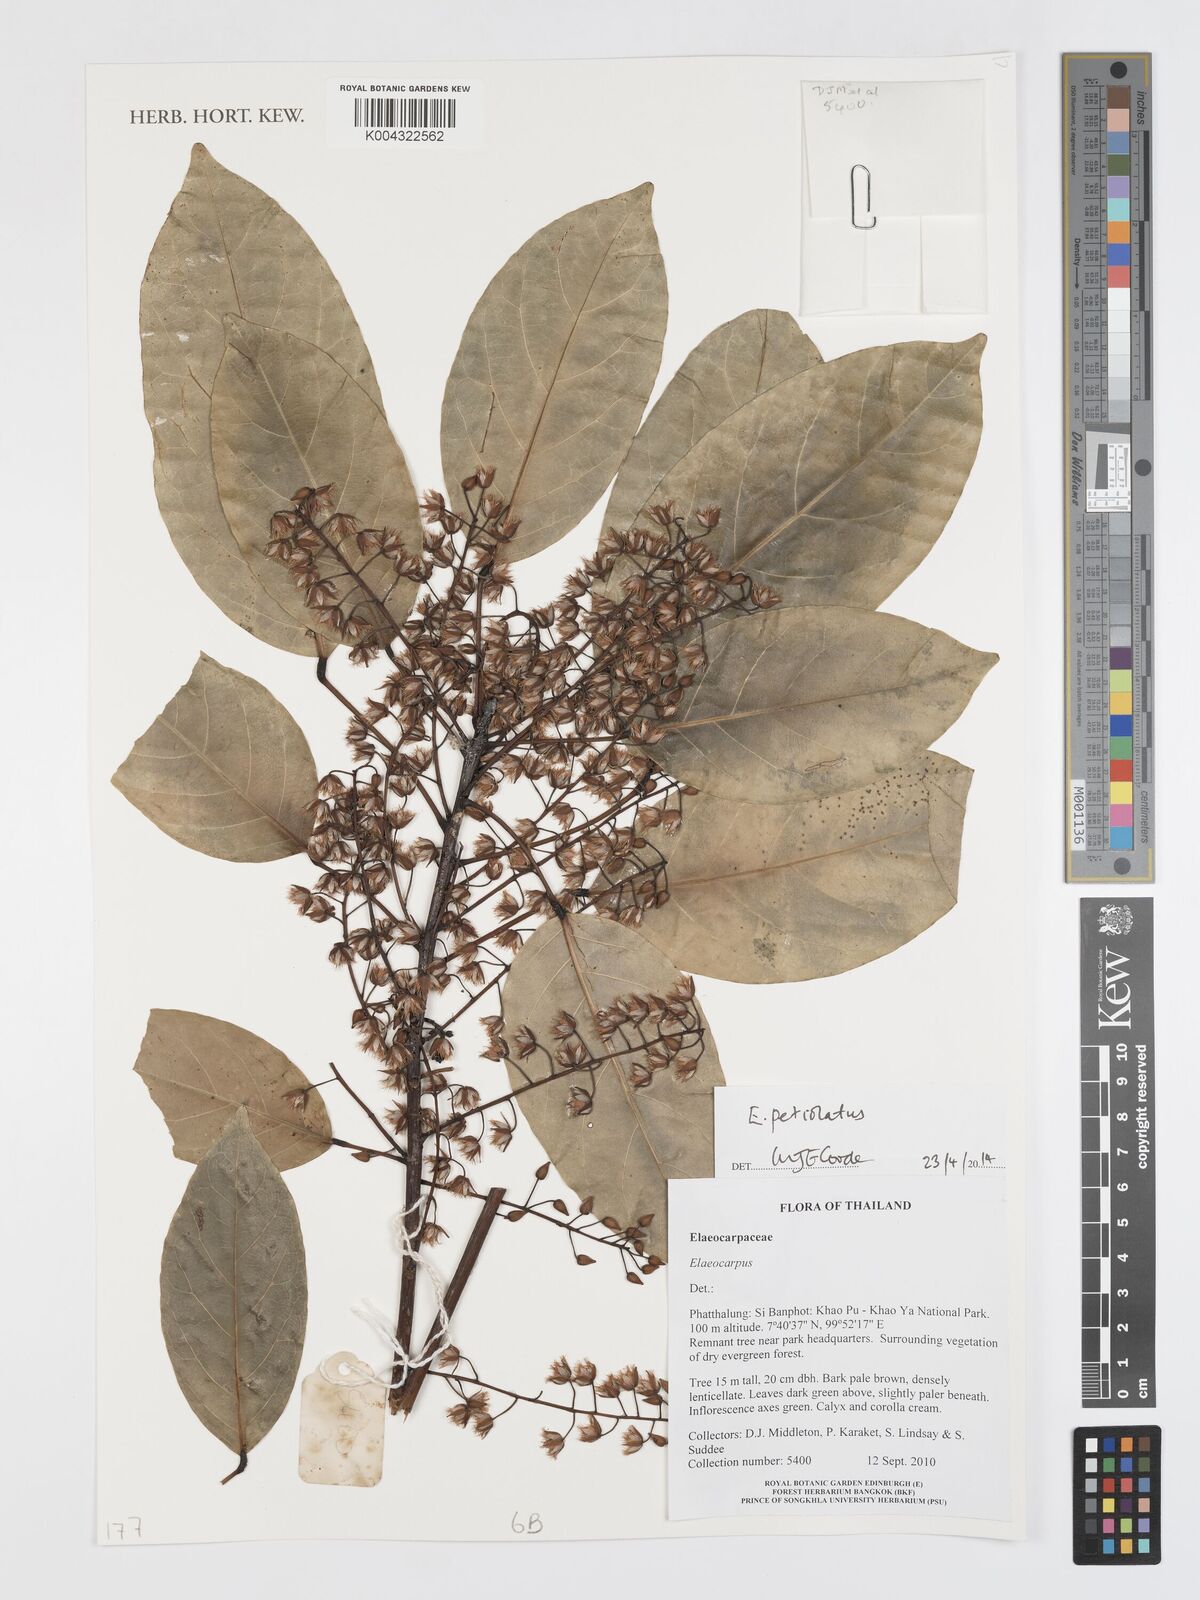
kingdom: Plantae
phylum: Tracheophyta
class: Magnoliopsida
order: Oxalidales
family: Elaeocarpaceae
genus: Elaeocarpus
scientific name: Elaeocarpus petiolatus
